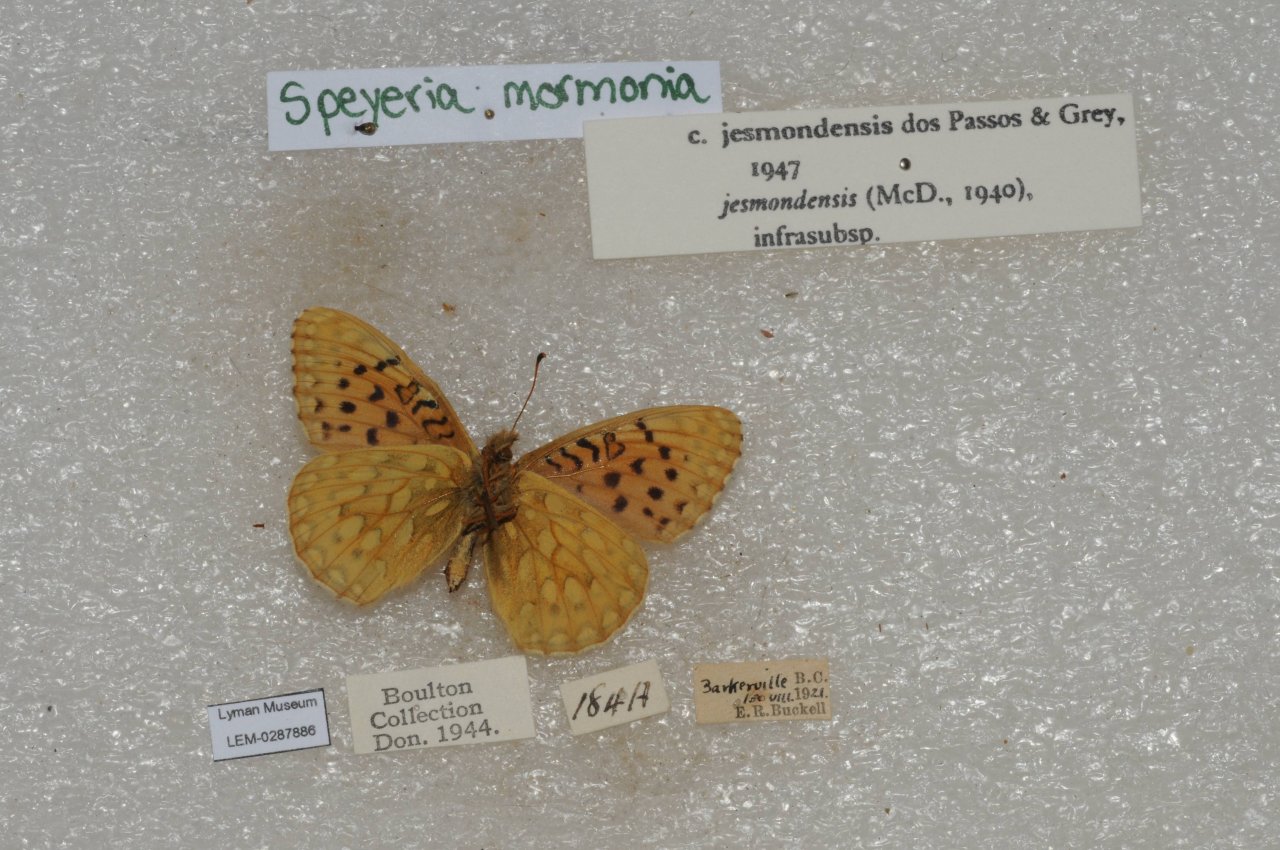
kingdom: Animalia
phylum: Arthropoda
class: Insecta
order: Lepidoptera
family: Nymphalidae
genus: Speyeria
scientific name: Speyeria mormonia
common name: Mormon Fritillary
